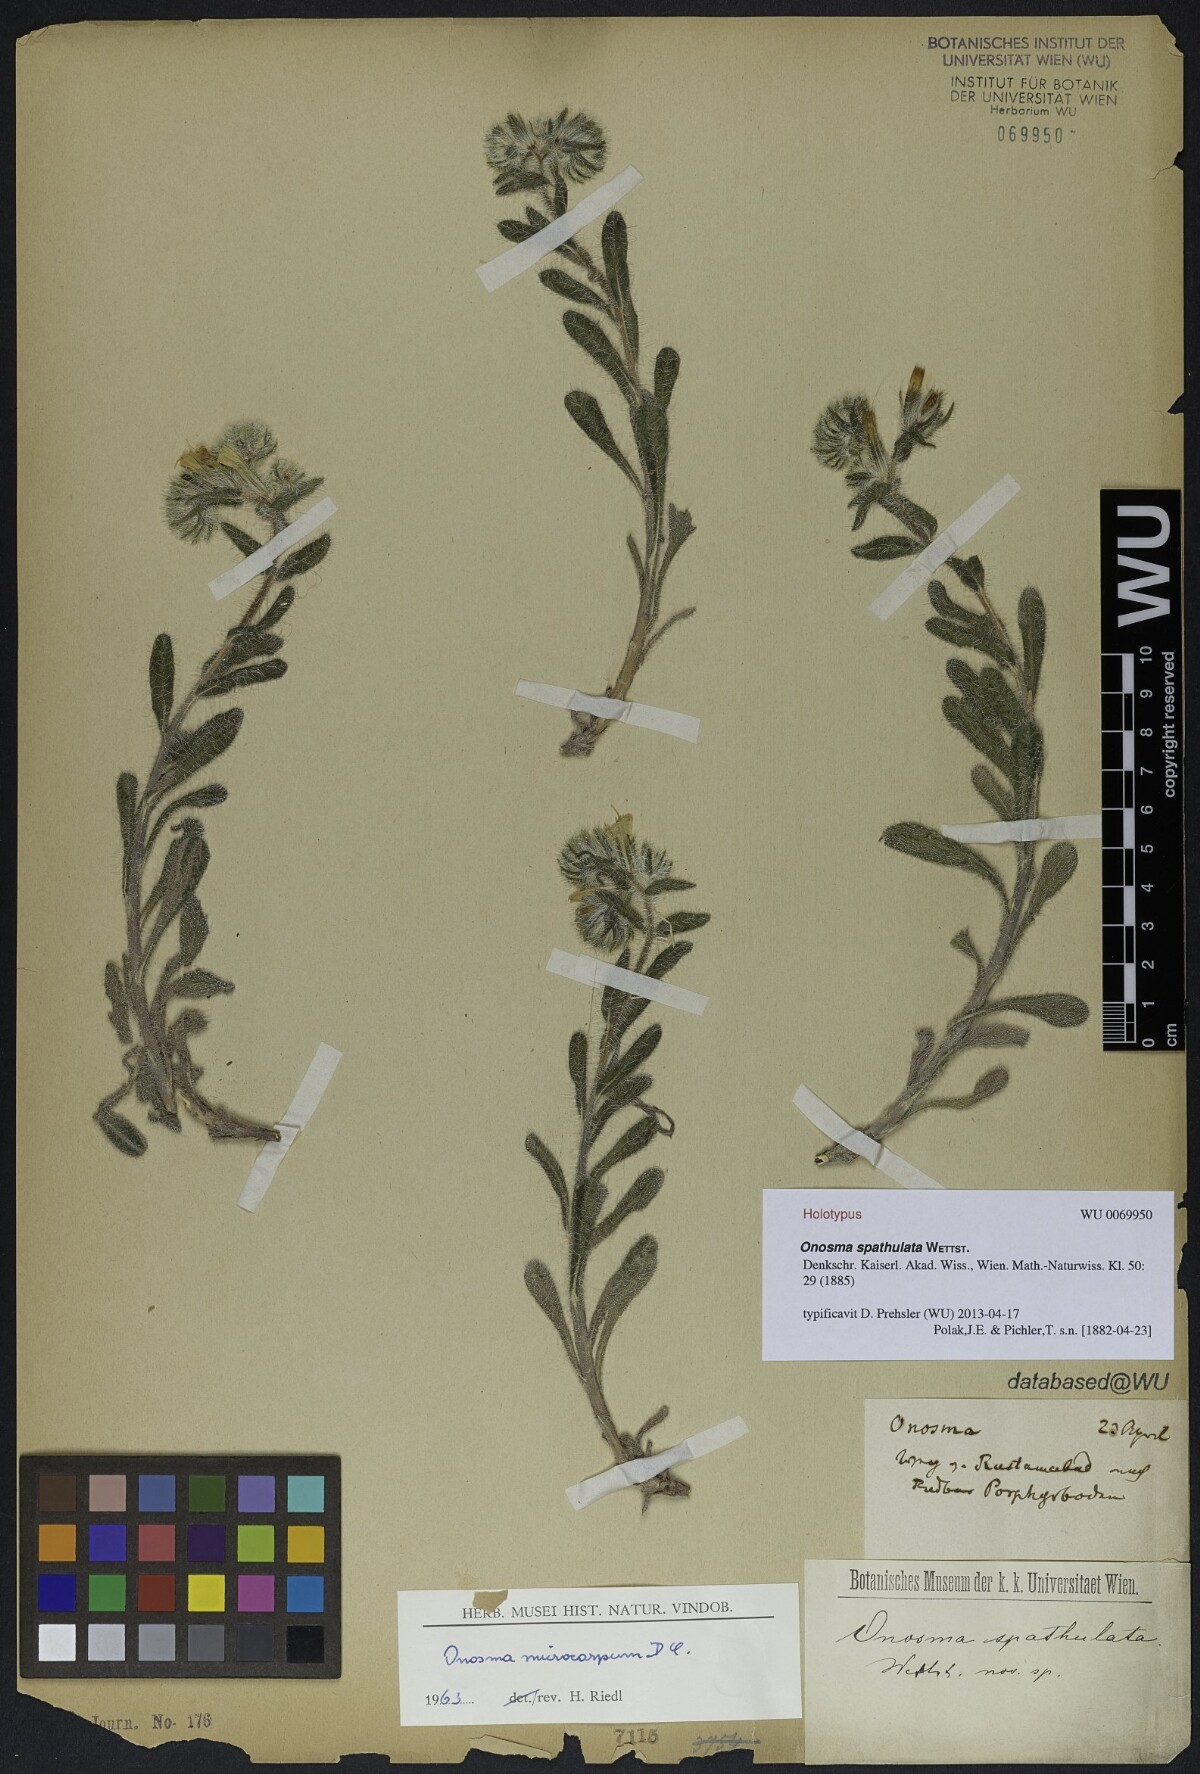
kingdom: Plantae
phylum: Tracheophyta
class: Magnoliopsida
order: Boraginales
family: Boraginaceae
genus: Onosma
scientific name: Onosma microcarpa
